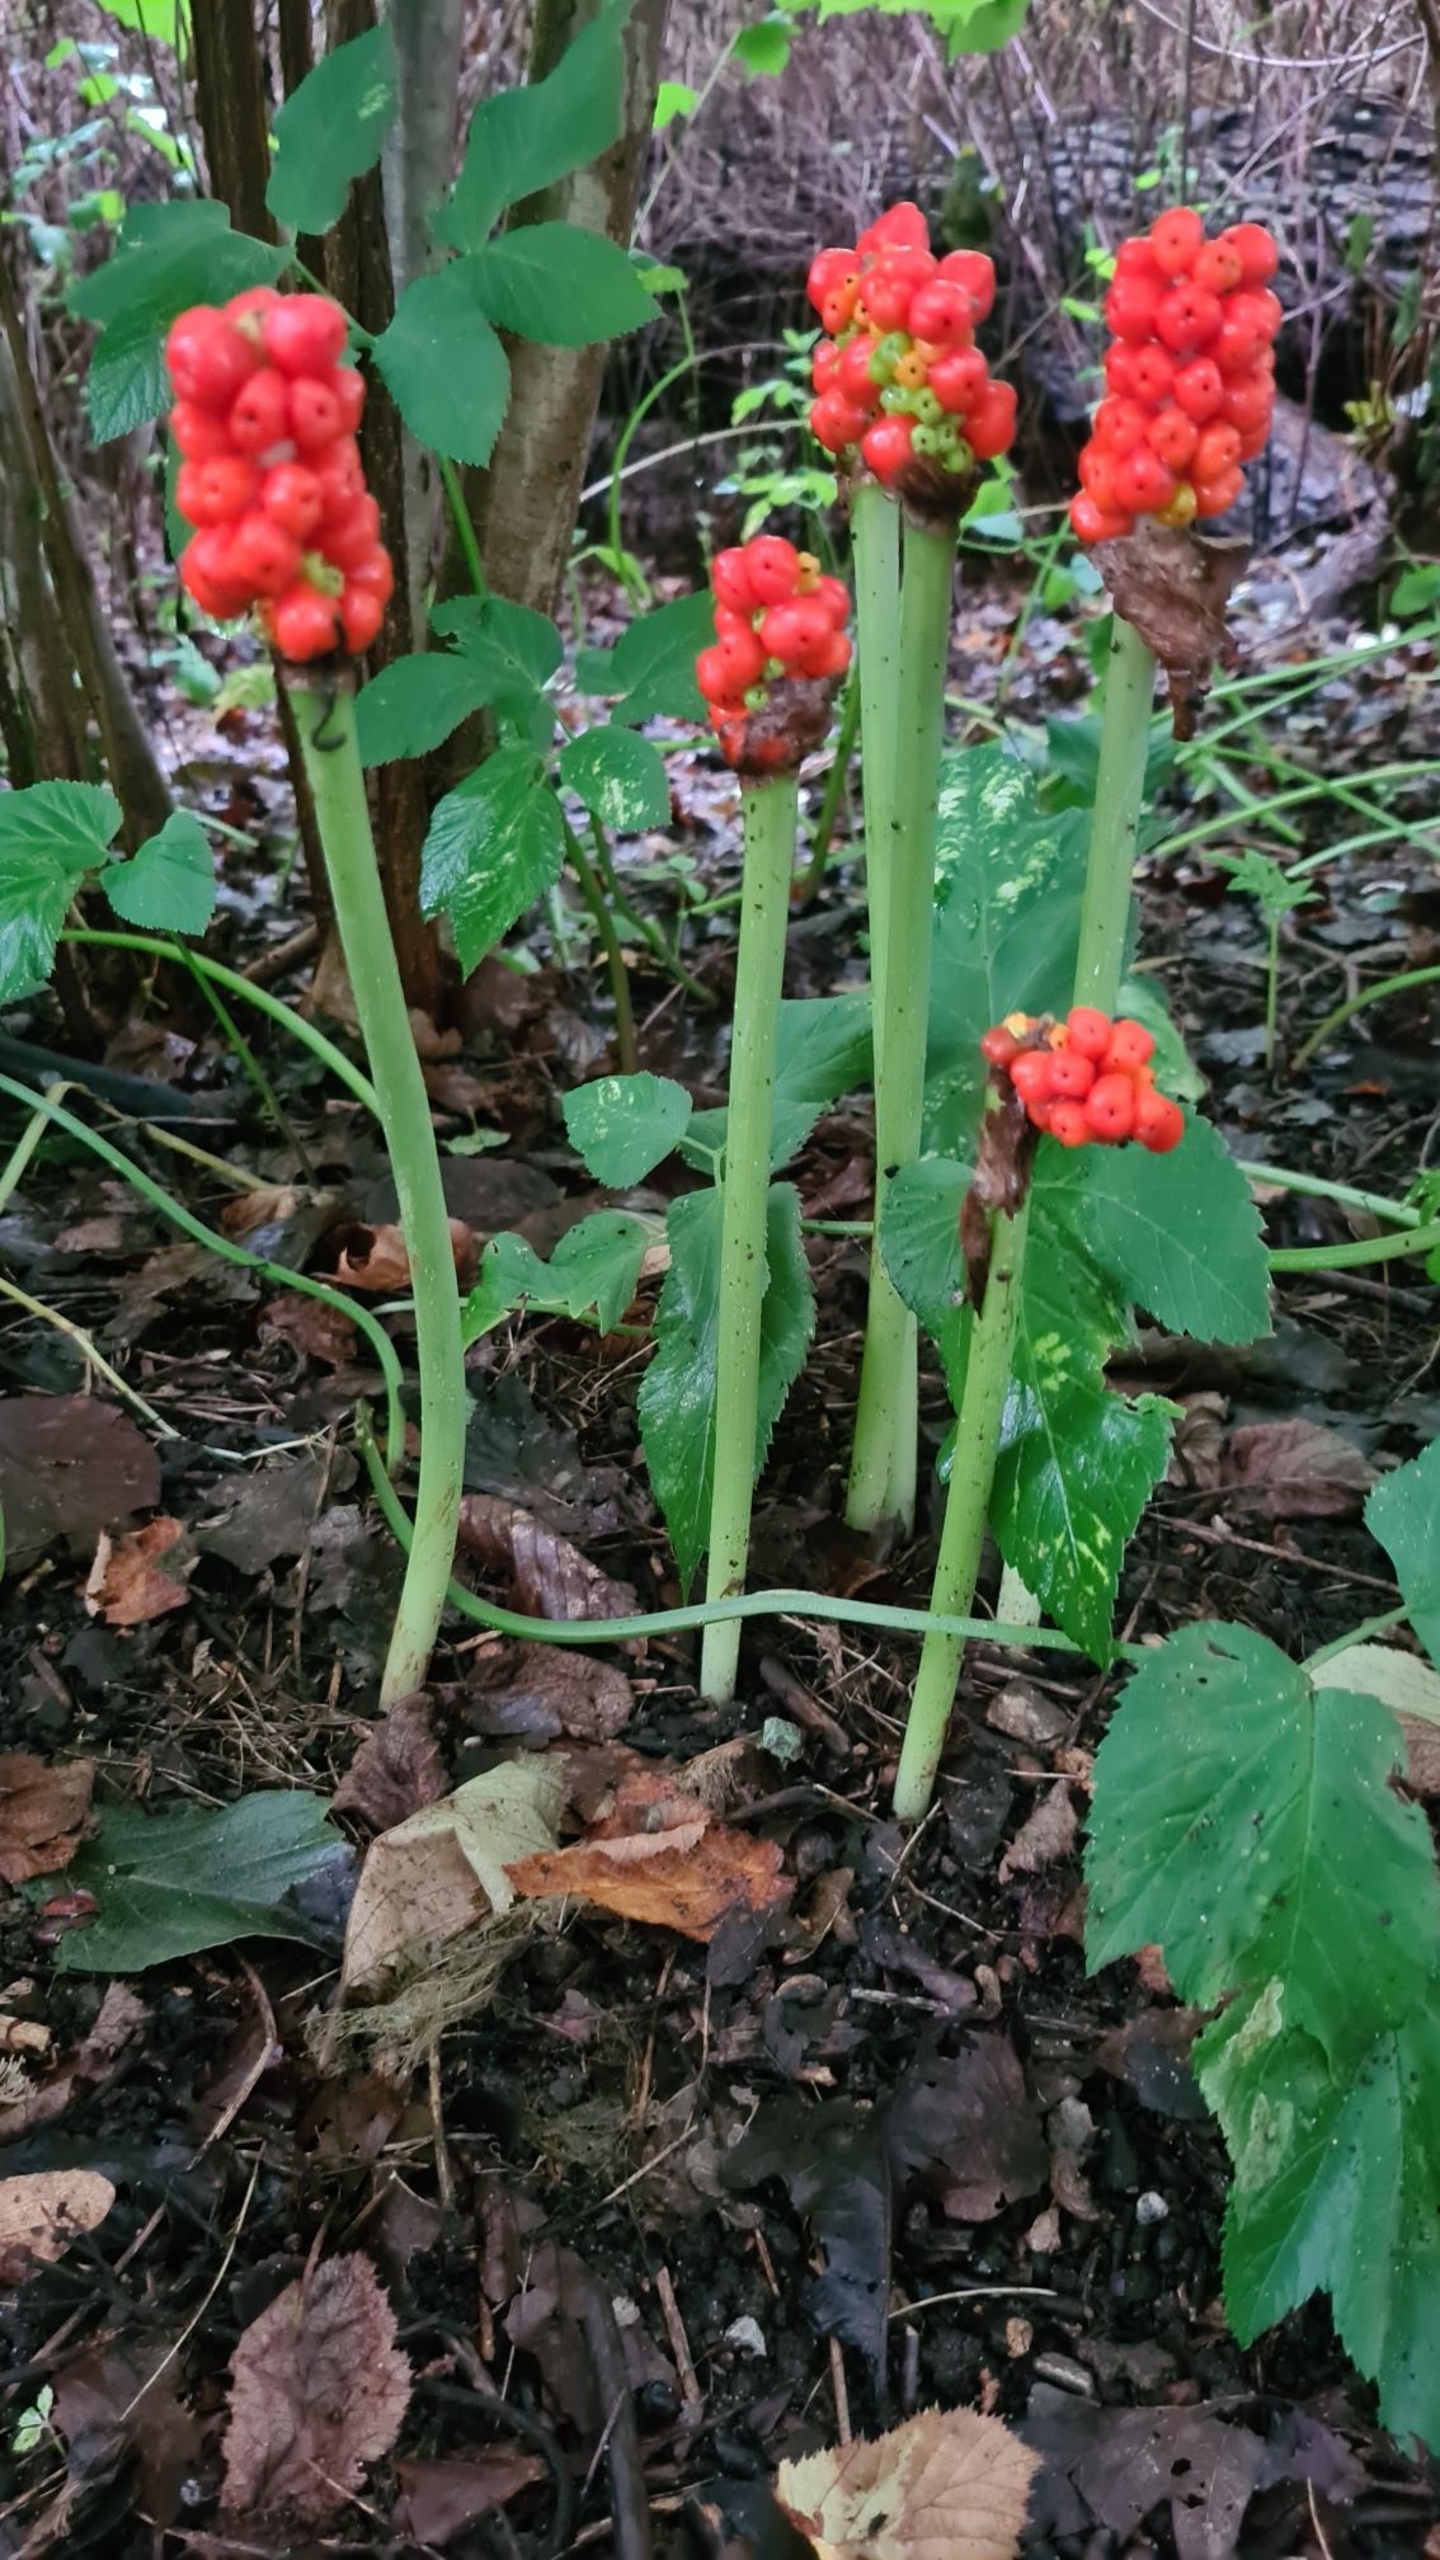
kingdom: Plantae
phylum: Tracheophyta
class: Liliopsida
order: Alismatales
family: Araceae
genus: Arum
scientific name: Arum
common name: Arumslægten
